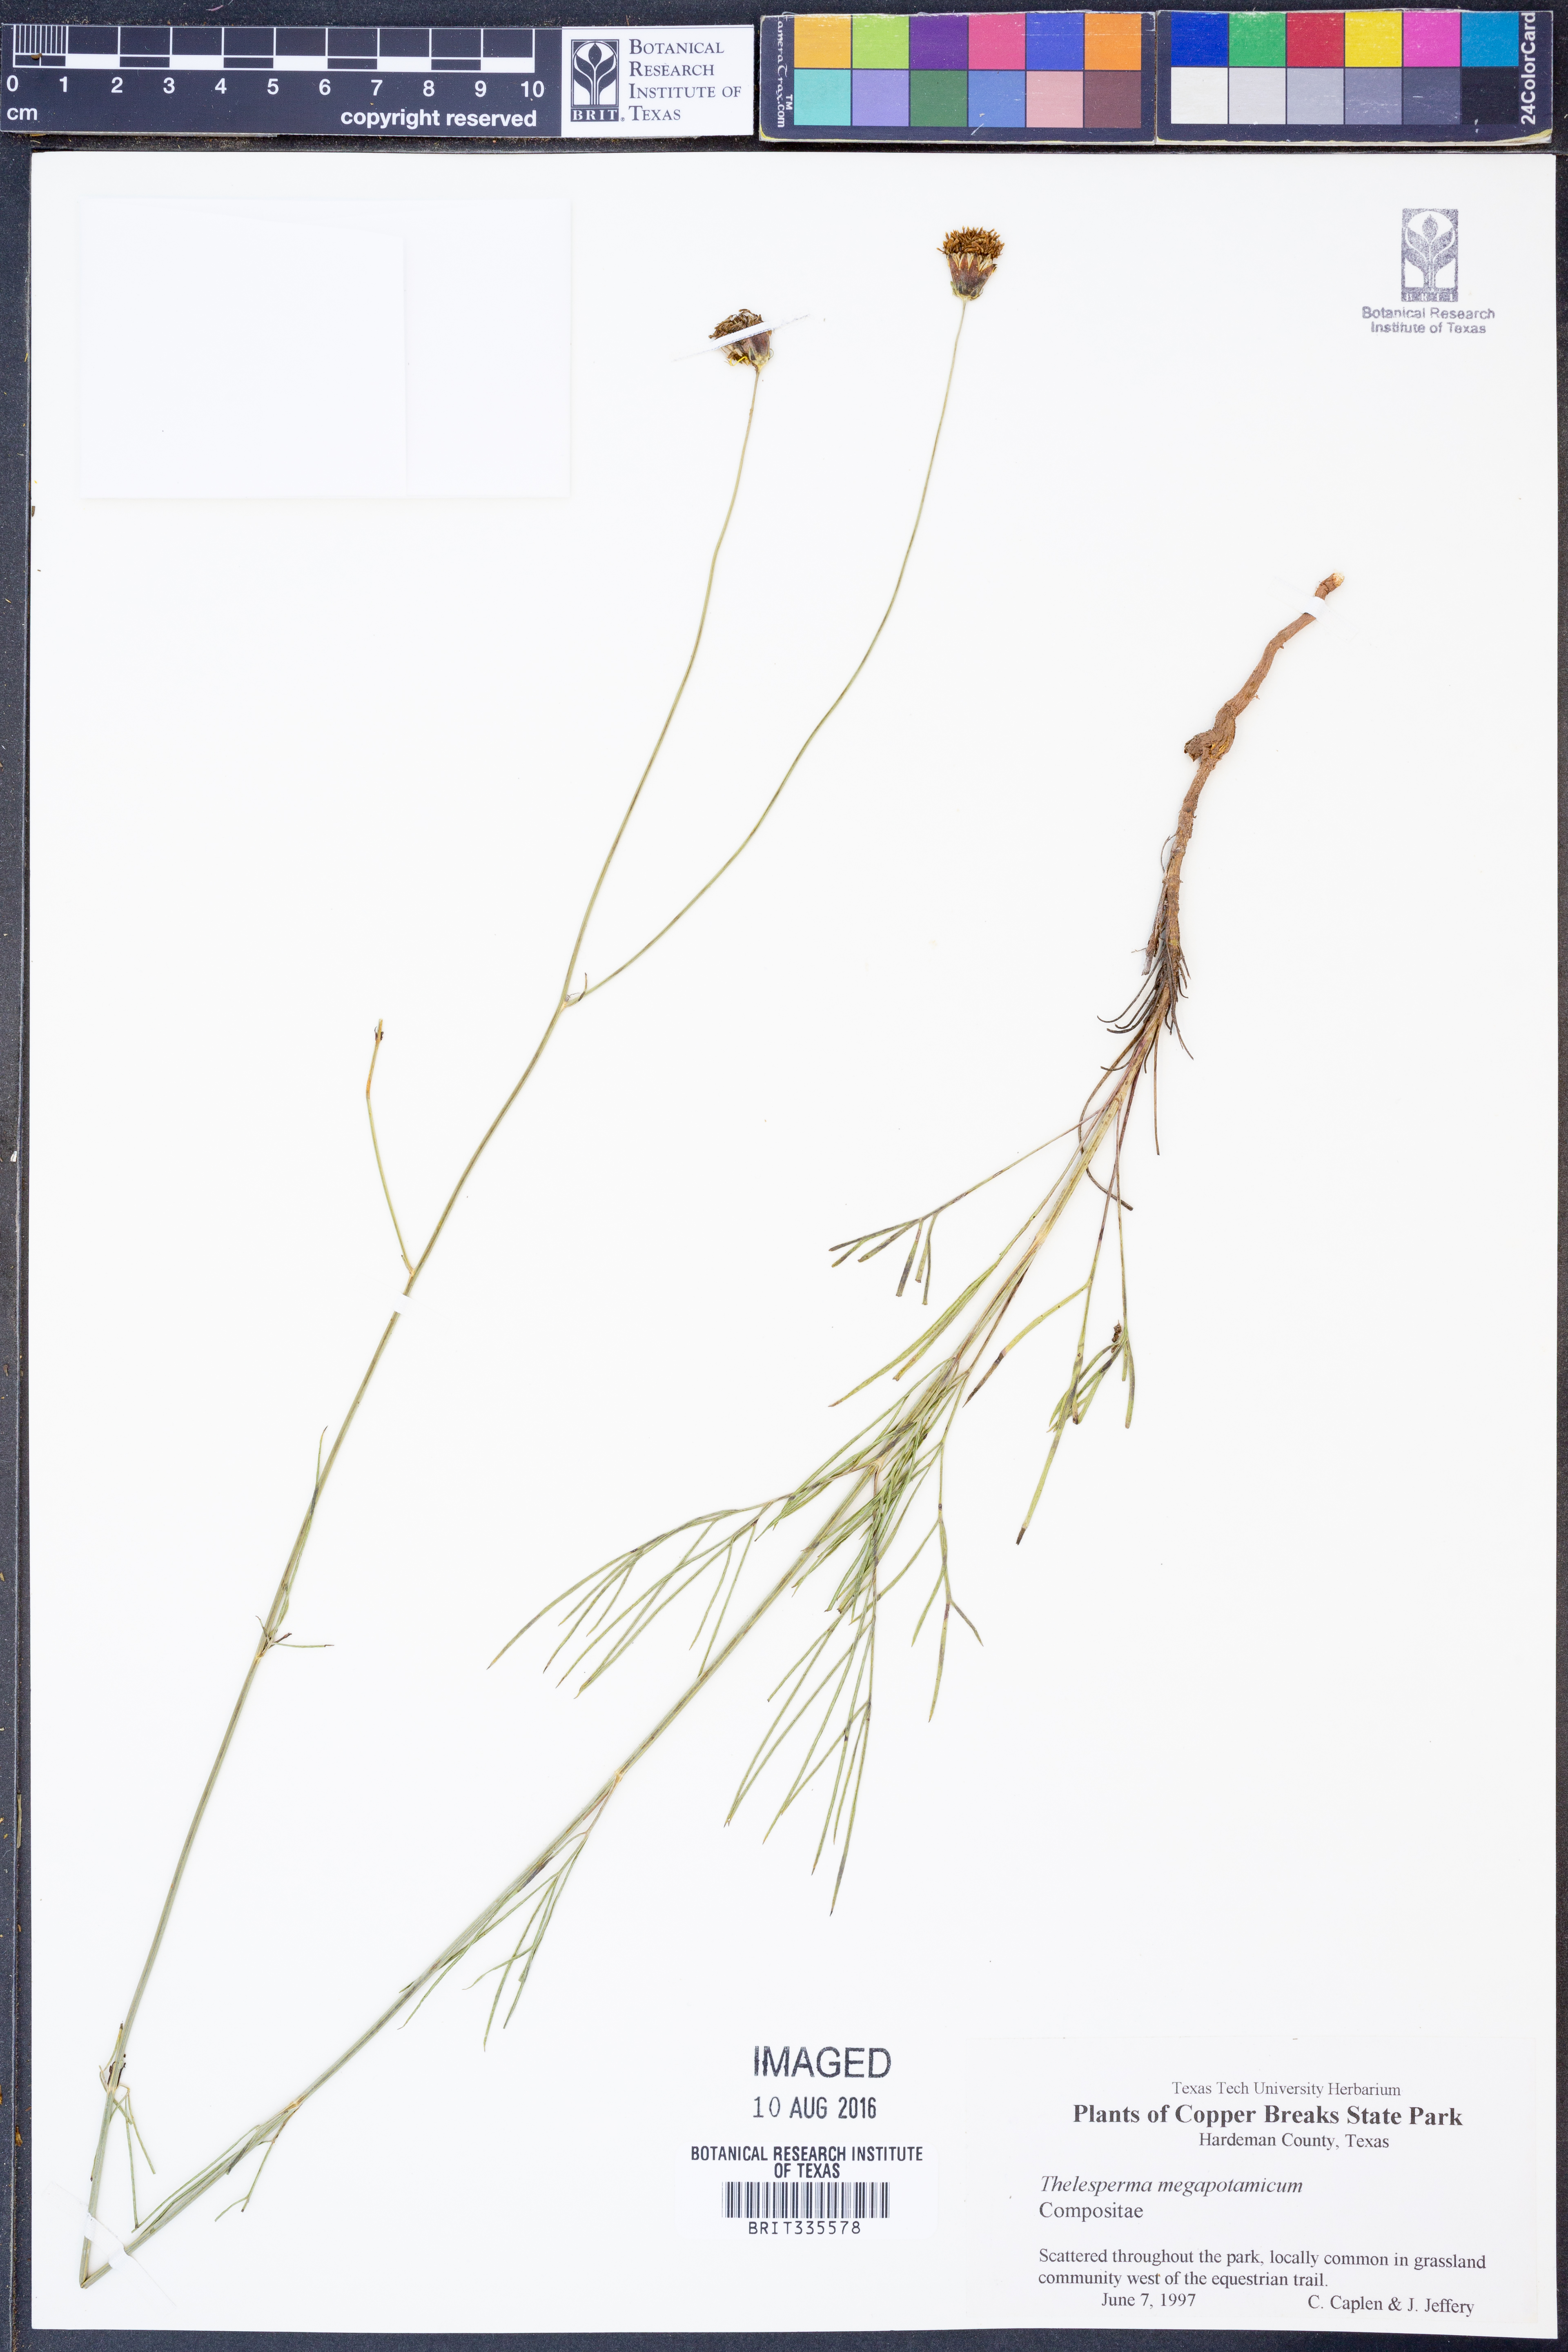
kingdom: Plantae
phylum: Tracheophyta
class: Magnoliopsida
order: Asterales
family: Asteraceae
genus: Thelesperma
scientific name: Thelesperma megapotamicum
